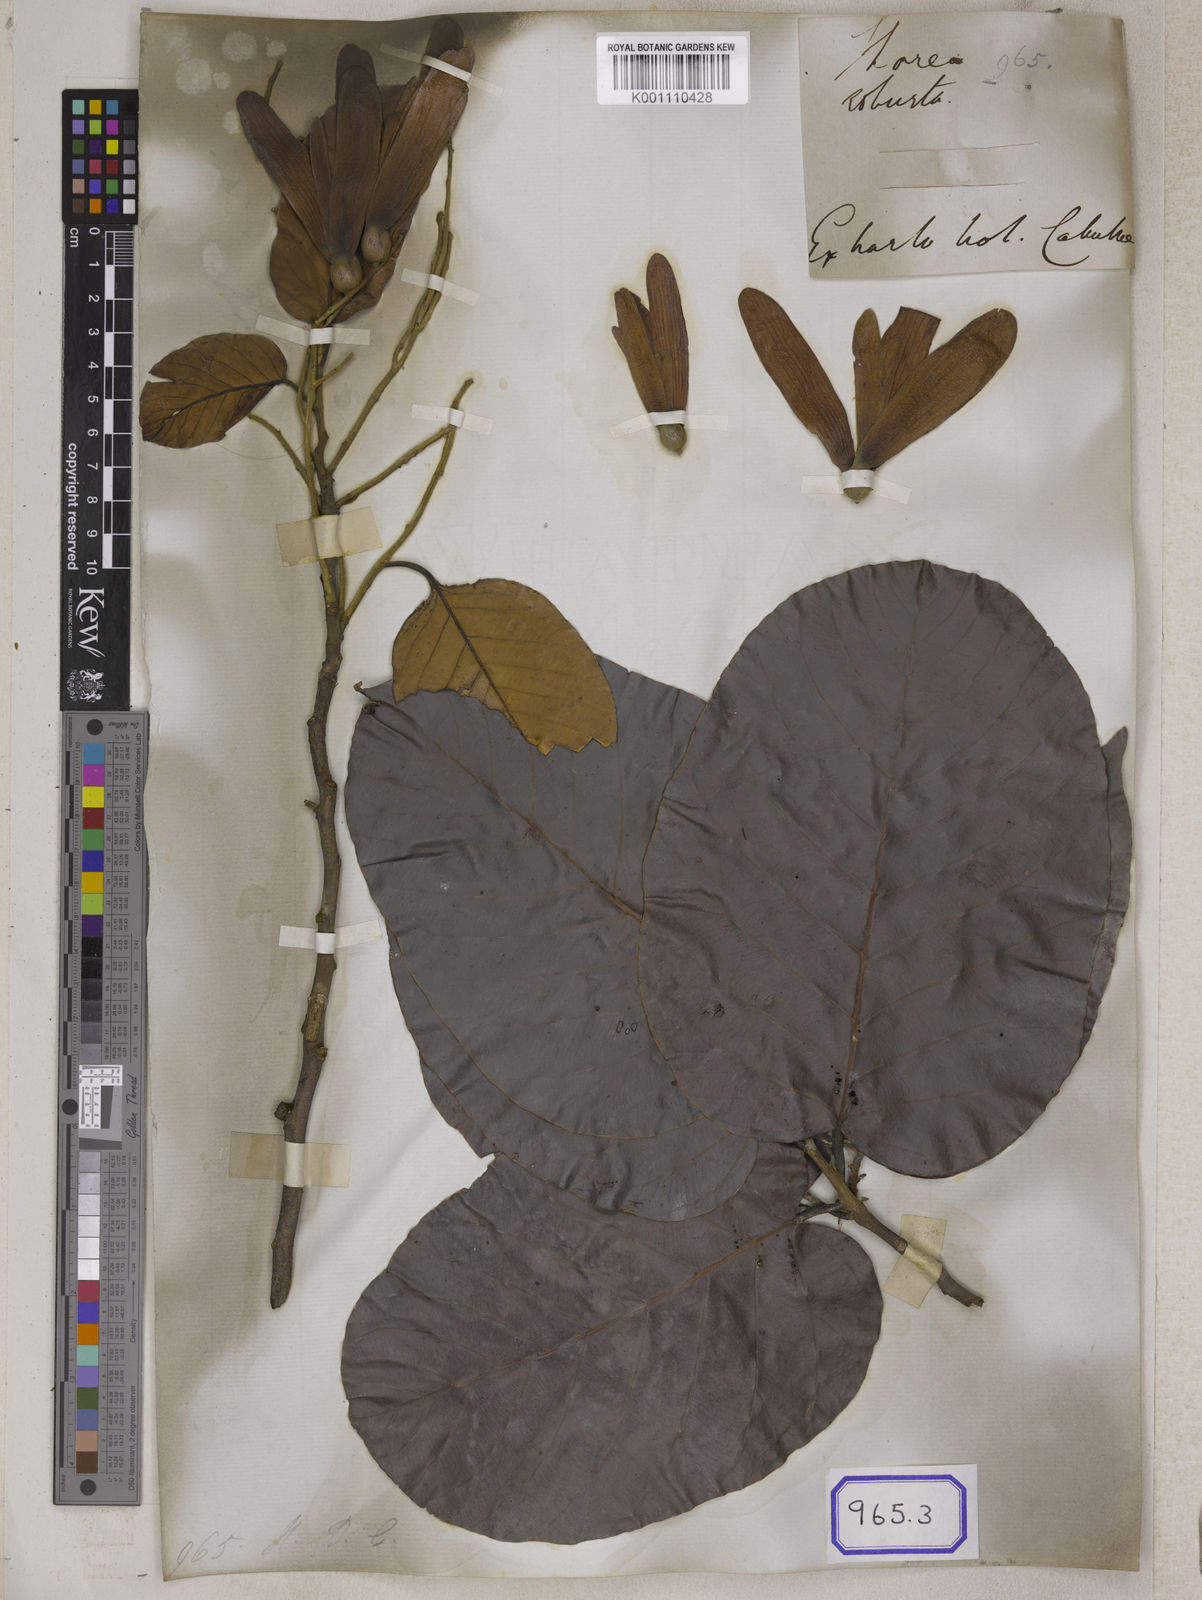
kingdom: Plantae
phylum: Tracheophyta
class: Magnoliopsida
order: Malvales
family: Dipterocarpaceae
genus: Shorea
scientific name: Shorea
